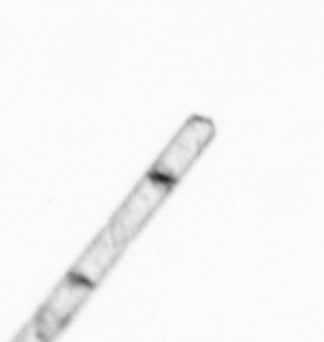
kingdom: Chromista
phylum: Ochrophyta
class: Bacillariophyceae
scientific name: Bacillariophyceae
